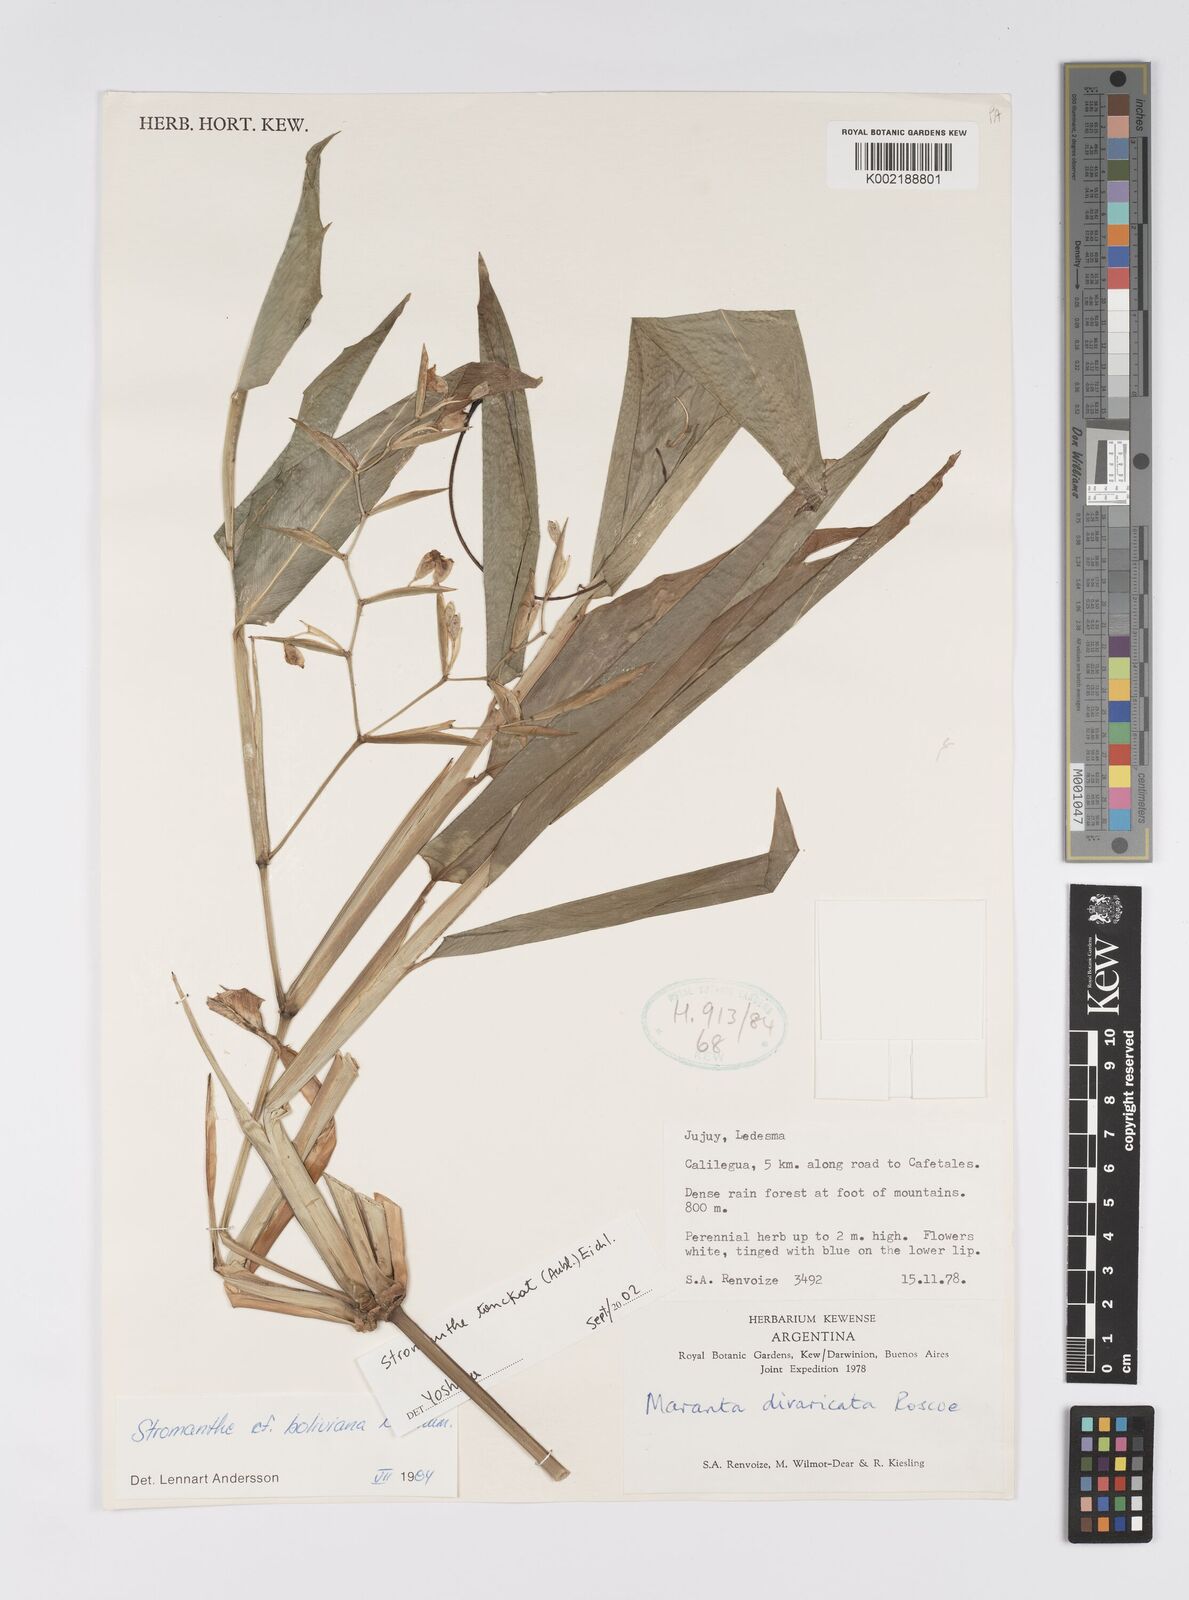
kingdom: Plantae
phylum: Tracheophyta
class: Liliopsida
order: Zingiberales
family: Marantaceae
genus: Stromanthe
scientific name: Stromanthe boliviana
